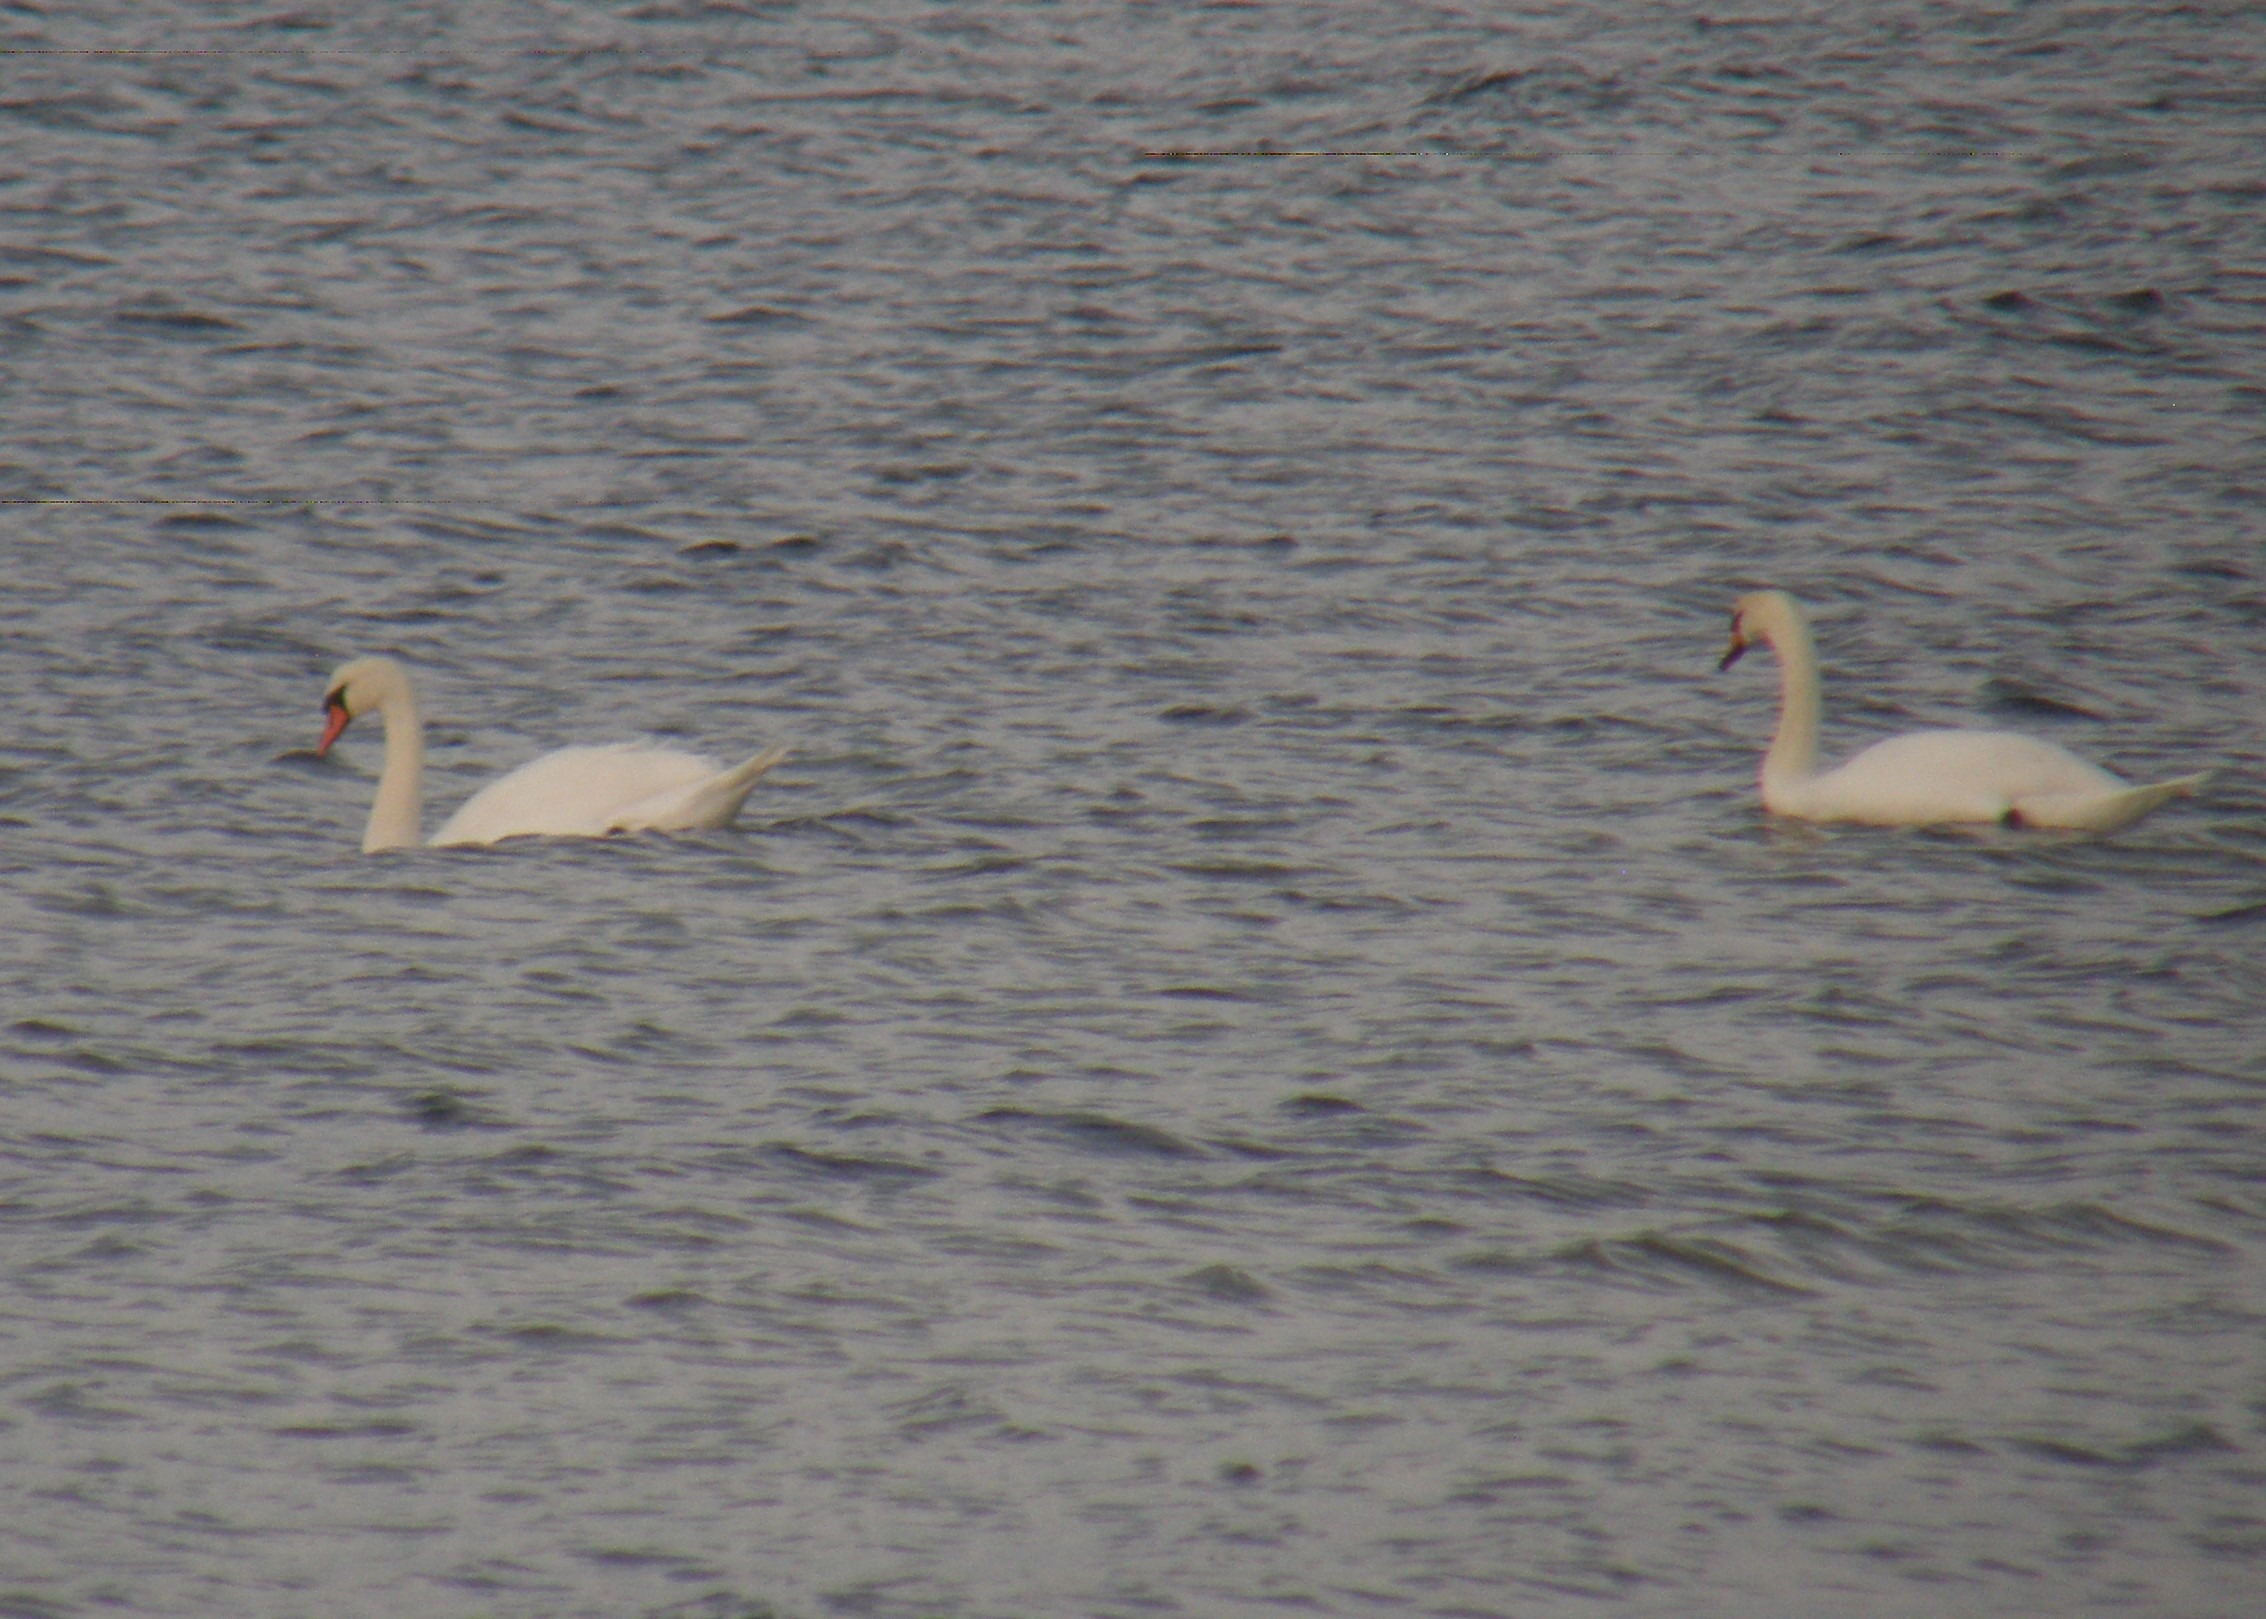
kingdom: Animalia
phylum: Chordata
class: Aves
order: Anseriformes
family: Anatidae
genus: Cygnus
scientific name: Cygnus olor
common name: Knopsvane
